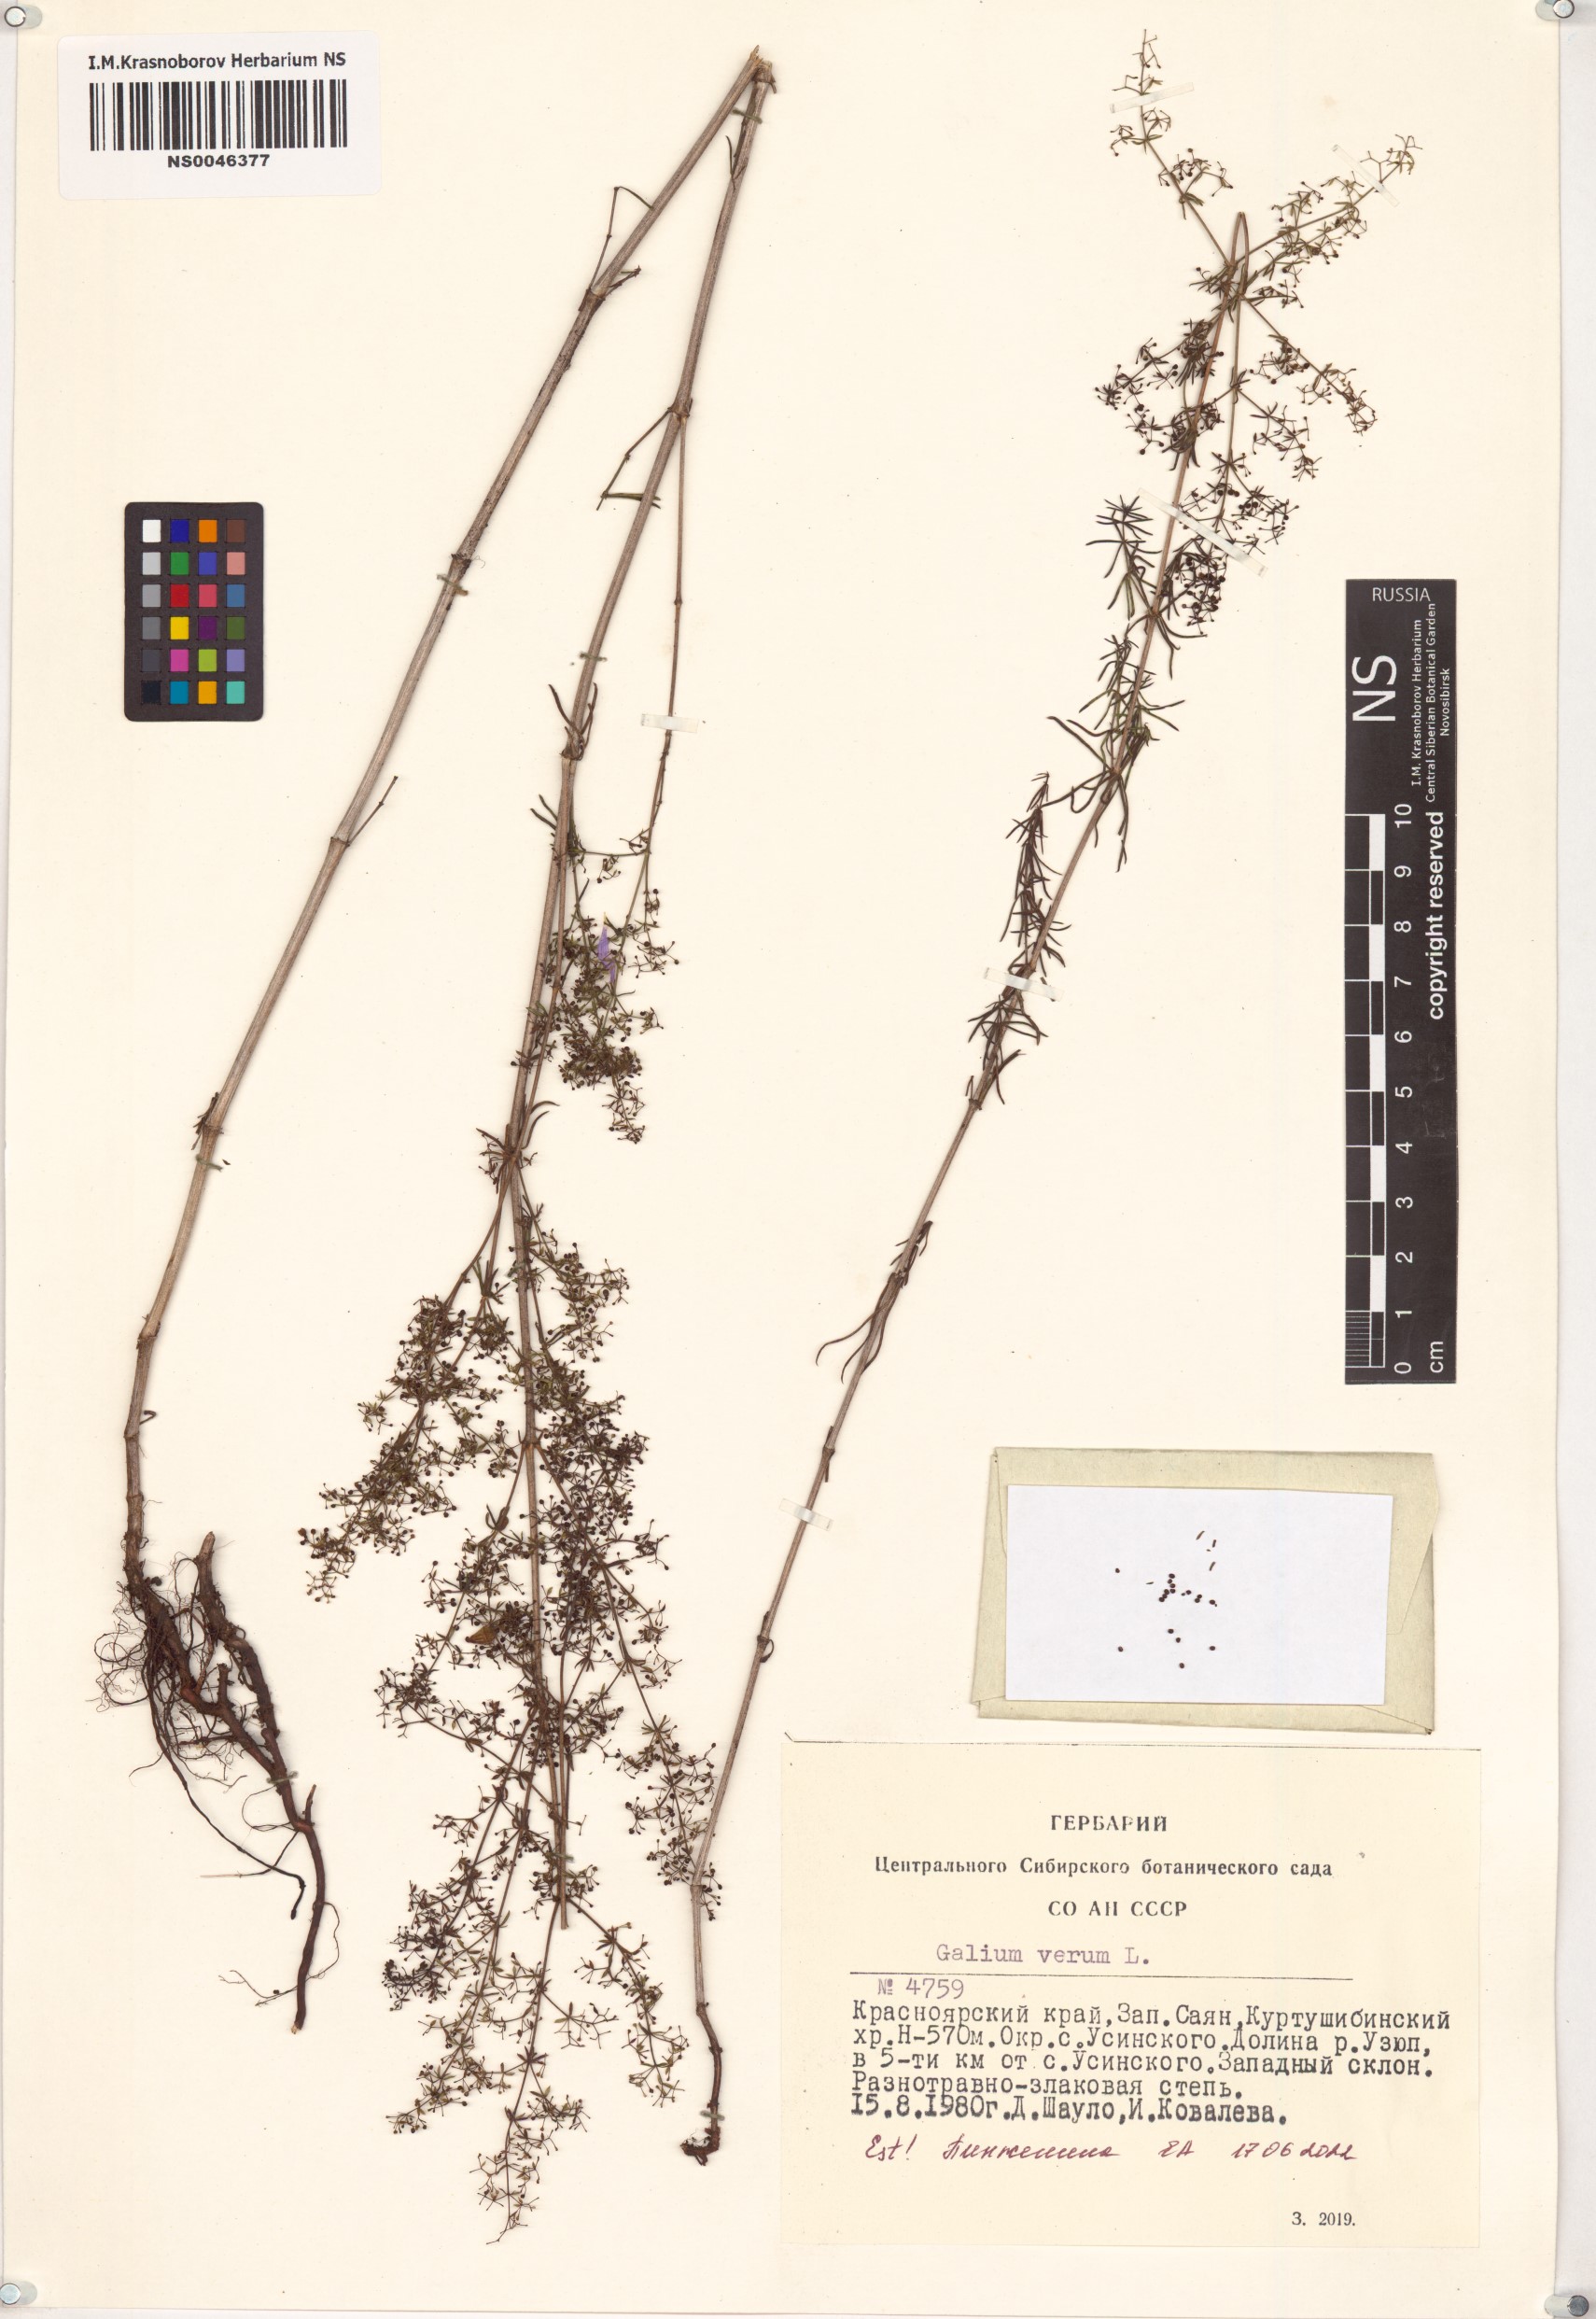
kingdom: Plantae
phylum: Tracheophyta
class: Magnoliopsida
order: Gentianales
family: Rubiaceae
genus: Galium
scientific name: Galium verum
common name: Lady's bedstraw
